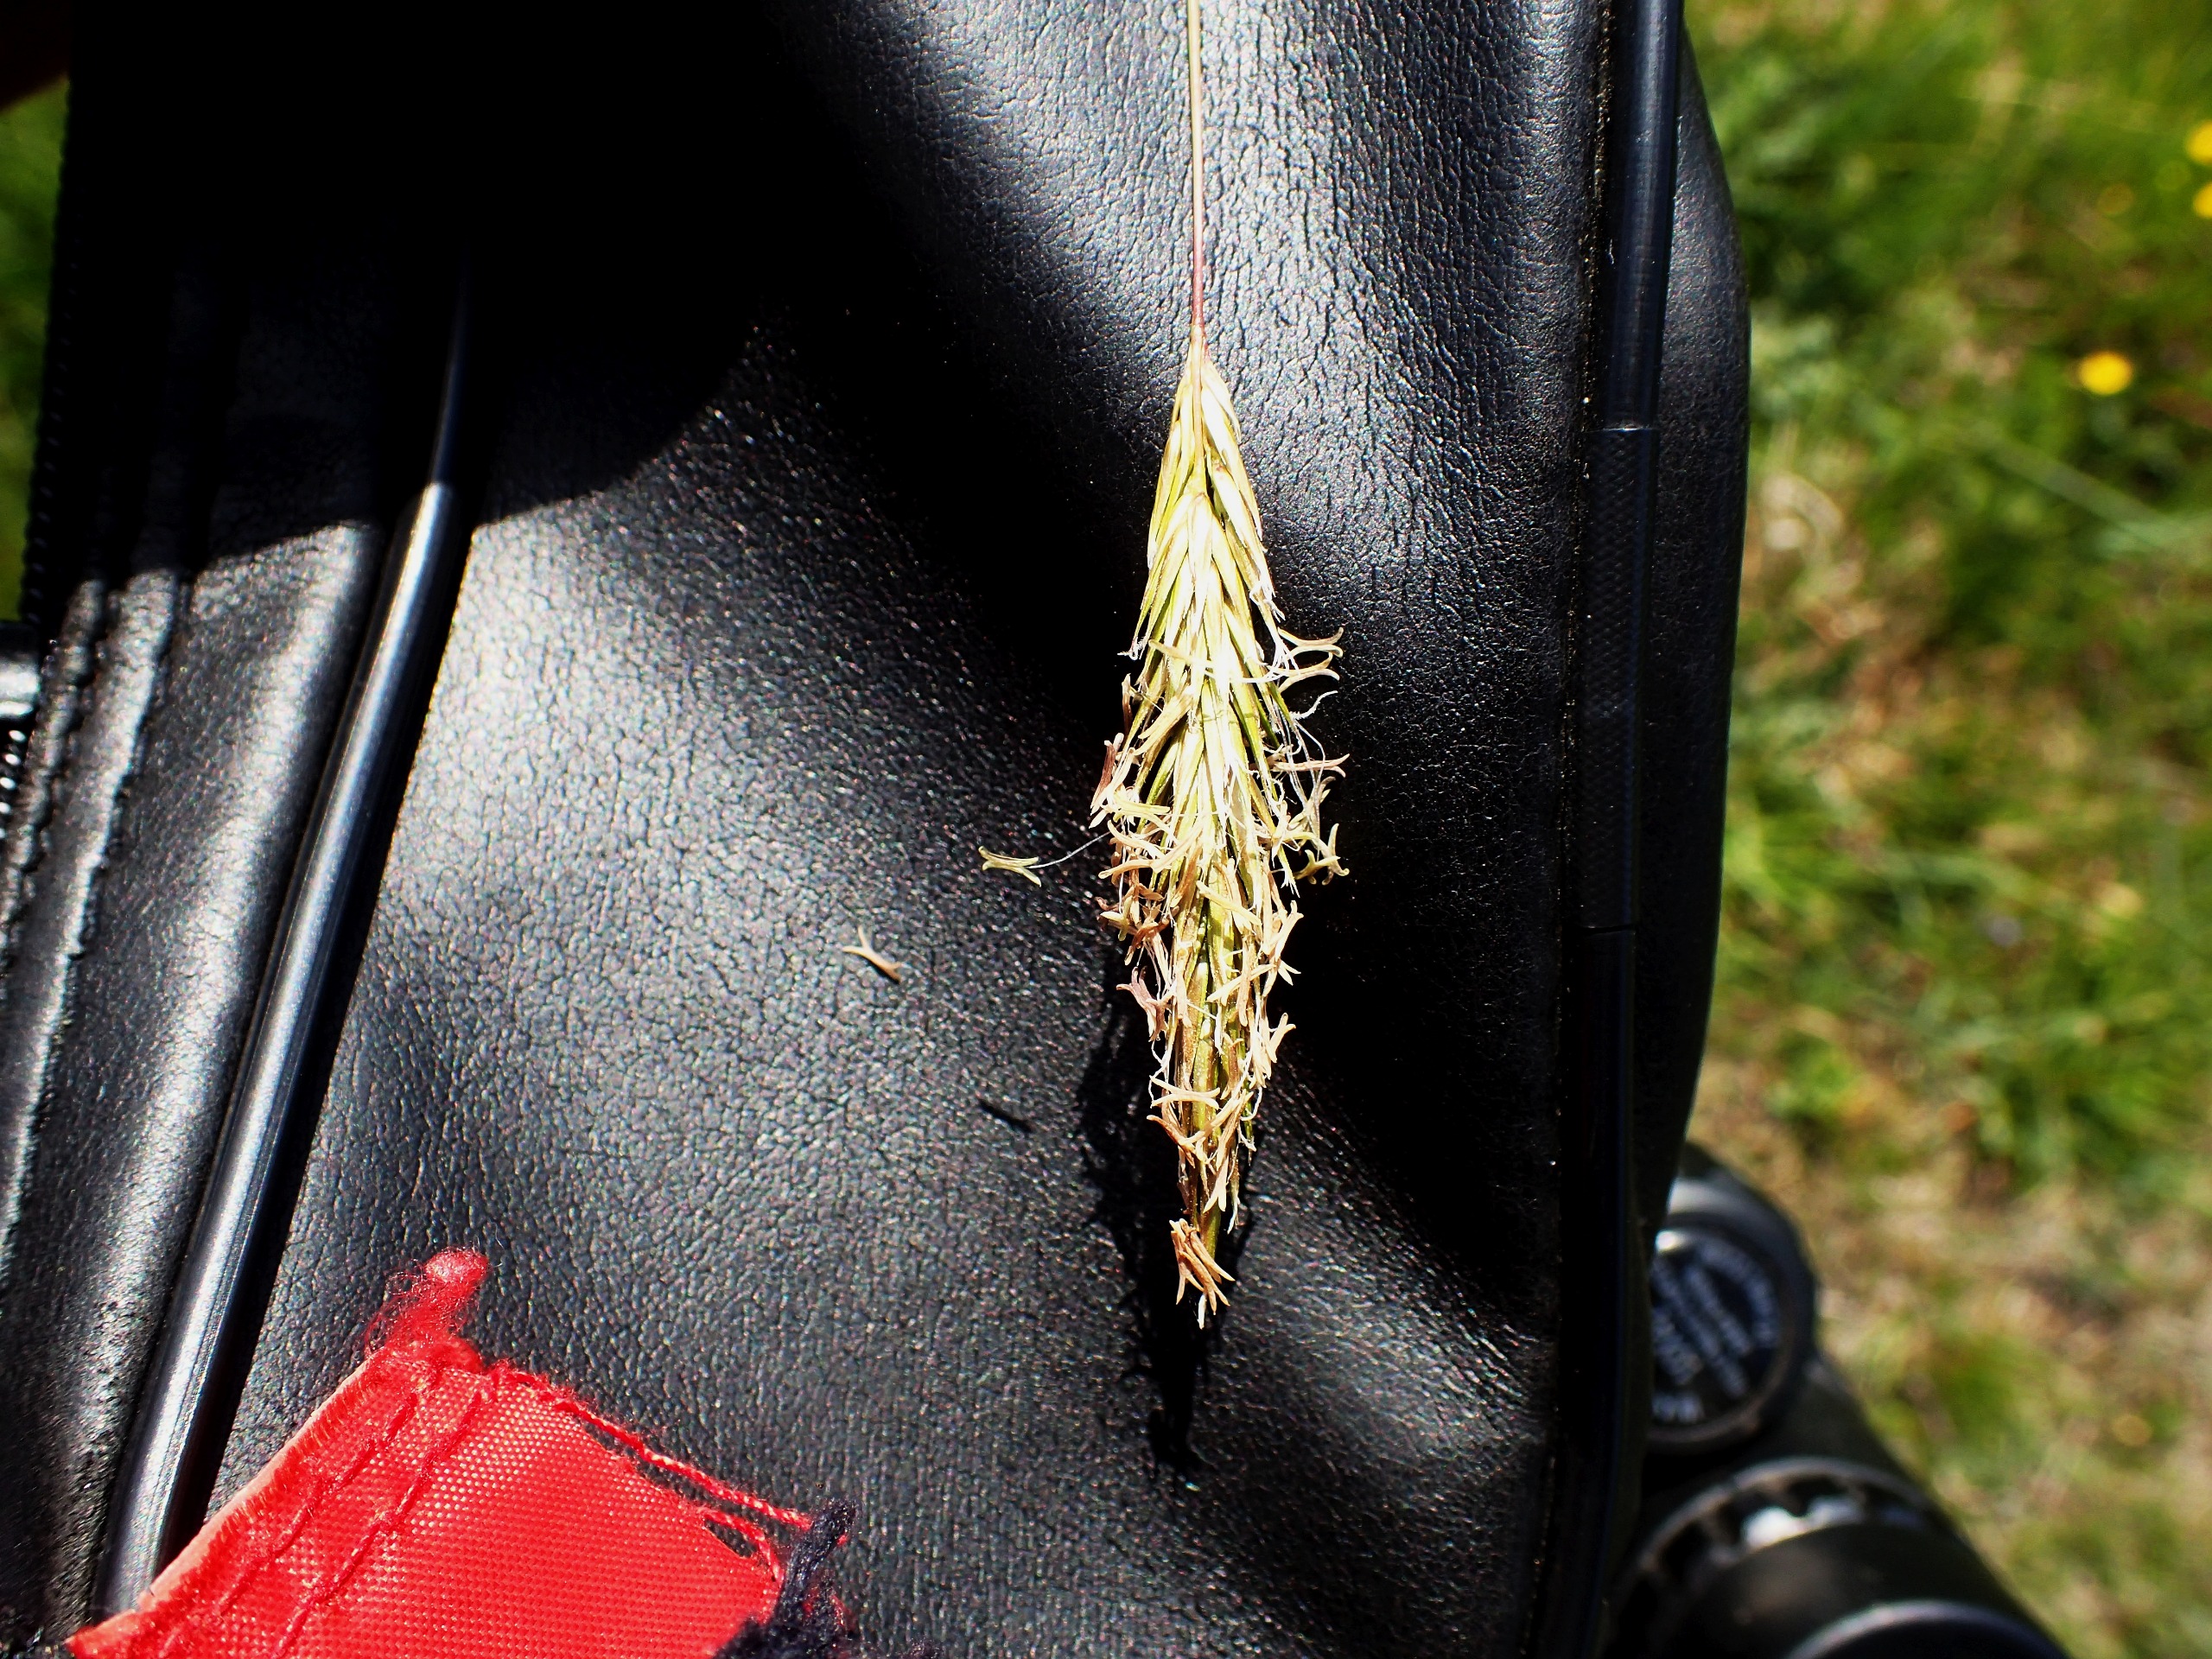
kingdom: Plantae
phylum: Tracheophyta
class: Liliopsida
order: Poales
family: Poaceae
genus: Anthoxanthum
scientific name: Anthoxanthum odoratum
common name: Vellugtende gulaks
